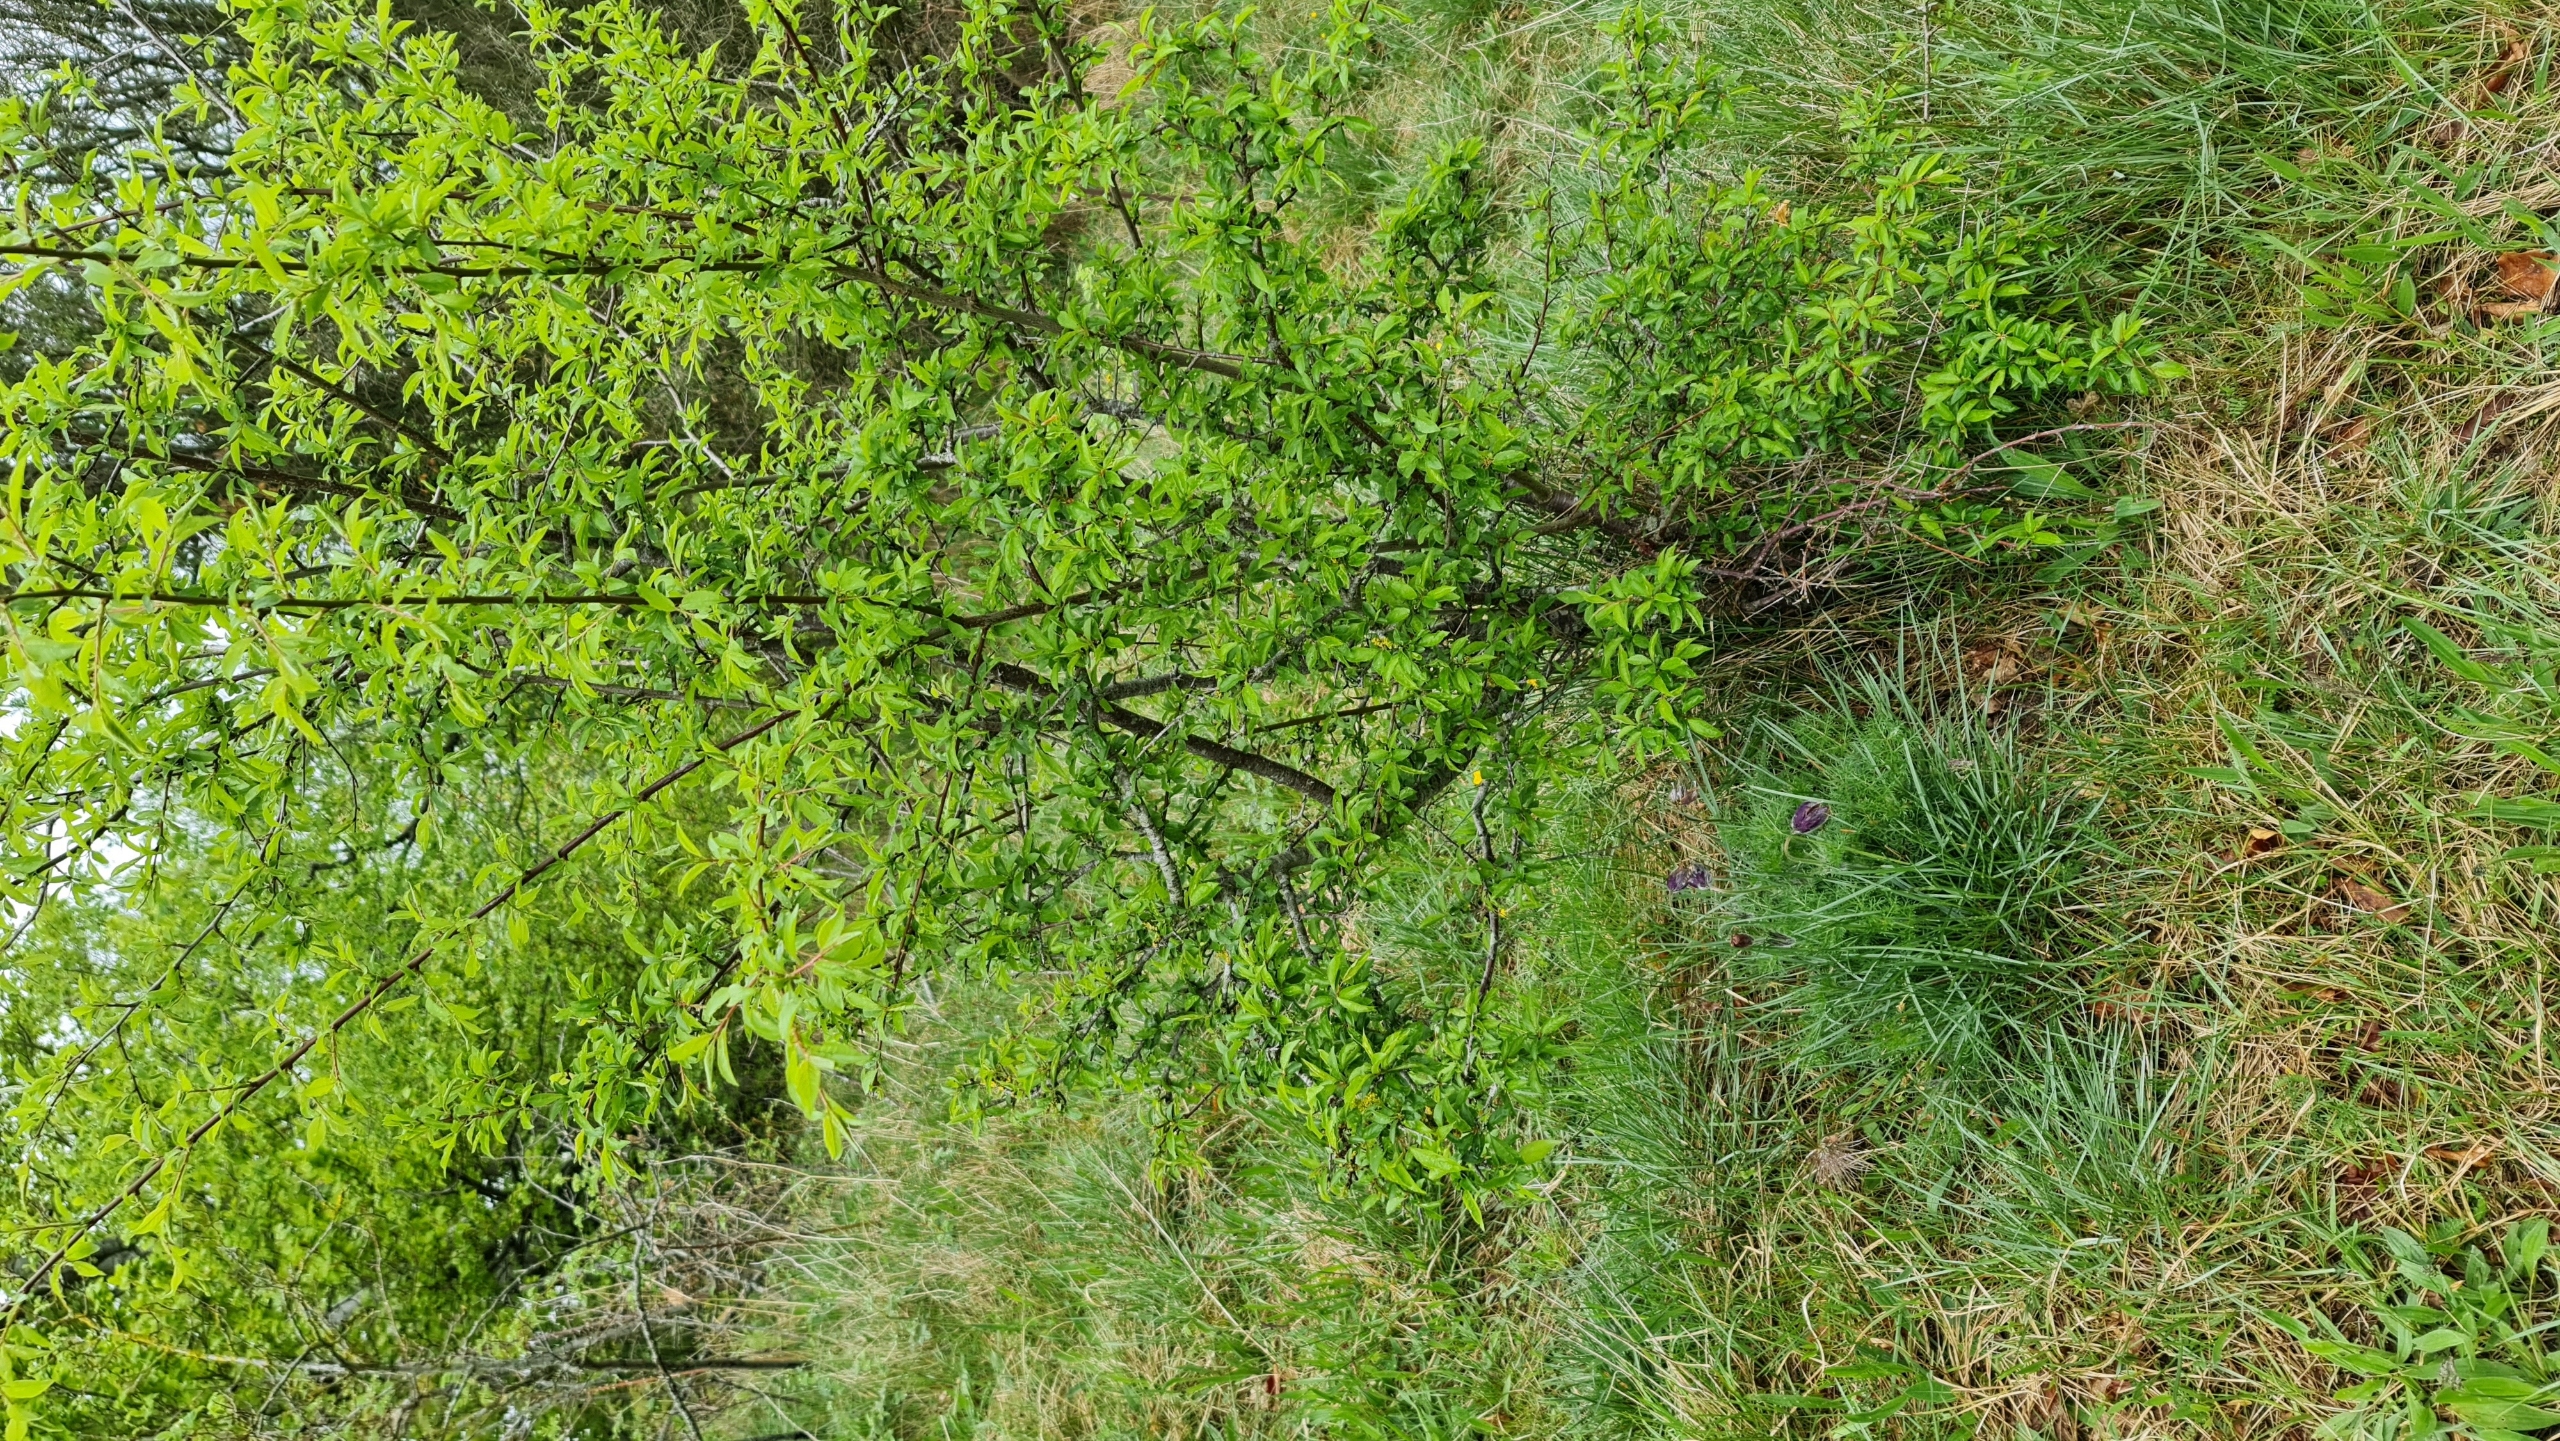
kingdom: Plantae
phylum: Tracheophyta
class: Magnoliopsida
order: Ranunculales
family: Ranunculaceae
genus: Pulsatilla
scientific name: Pulsatilla pratensis
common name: Nikkende kobjælde
